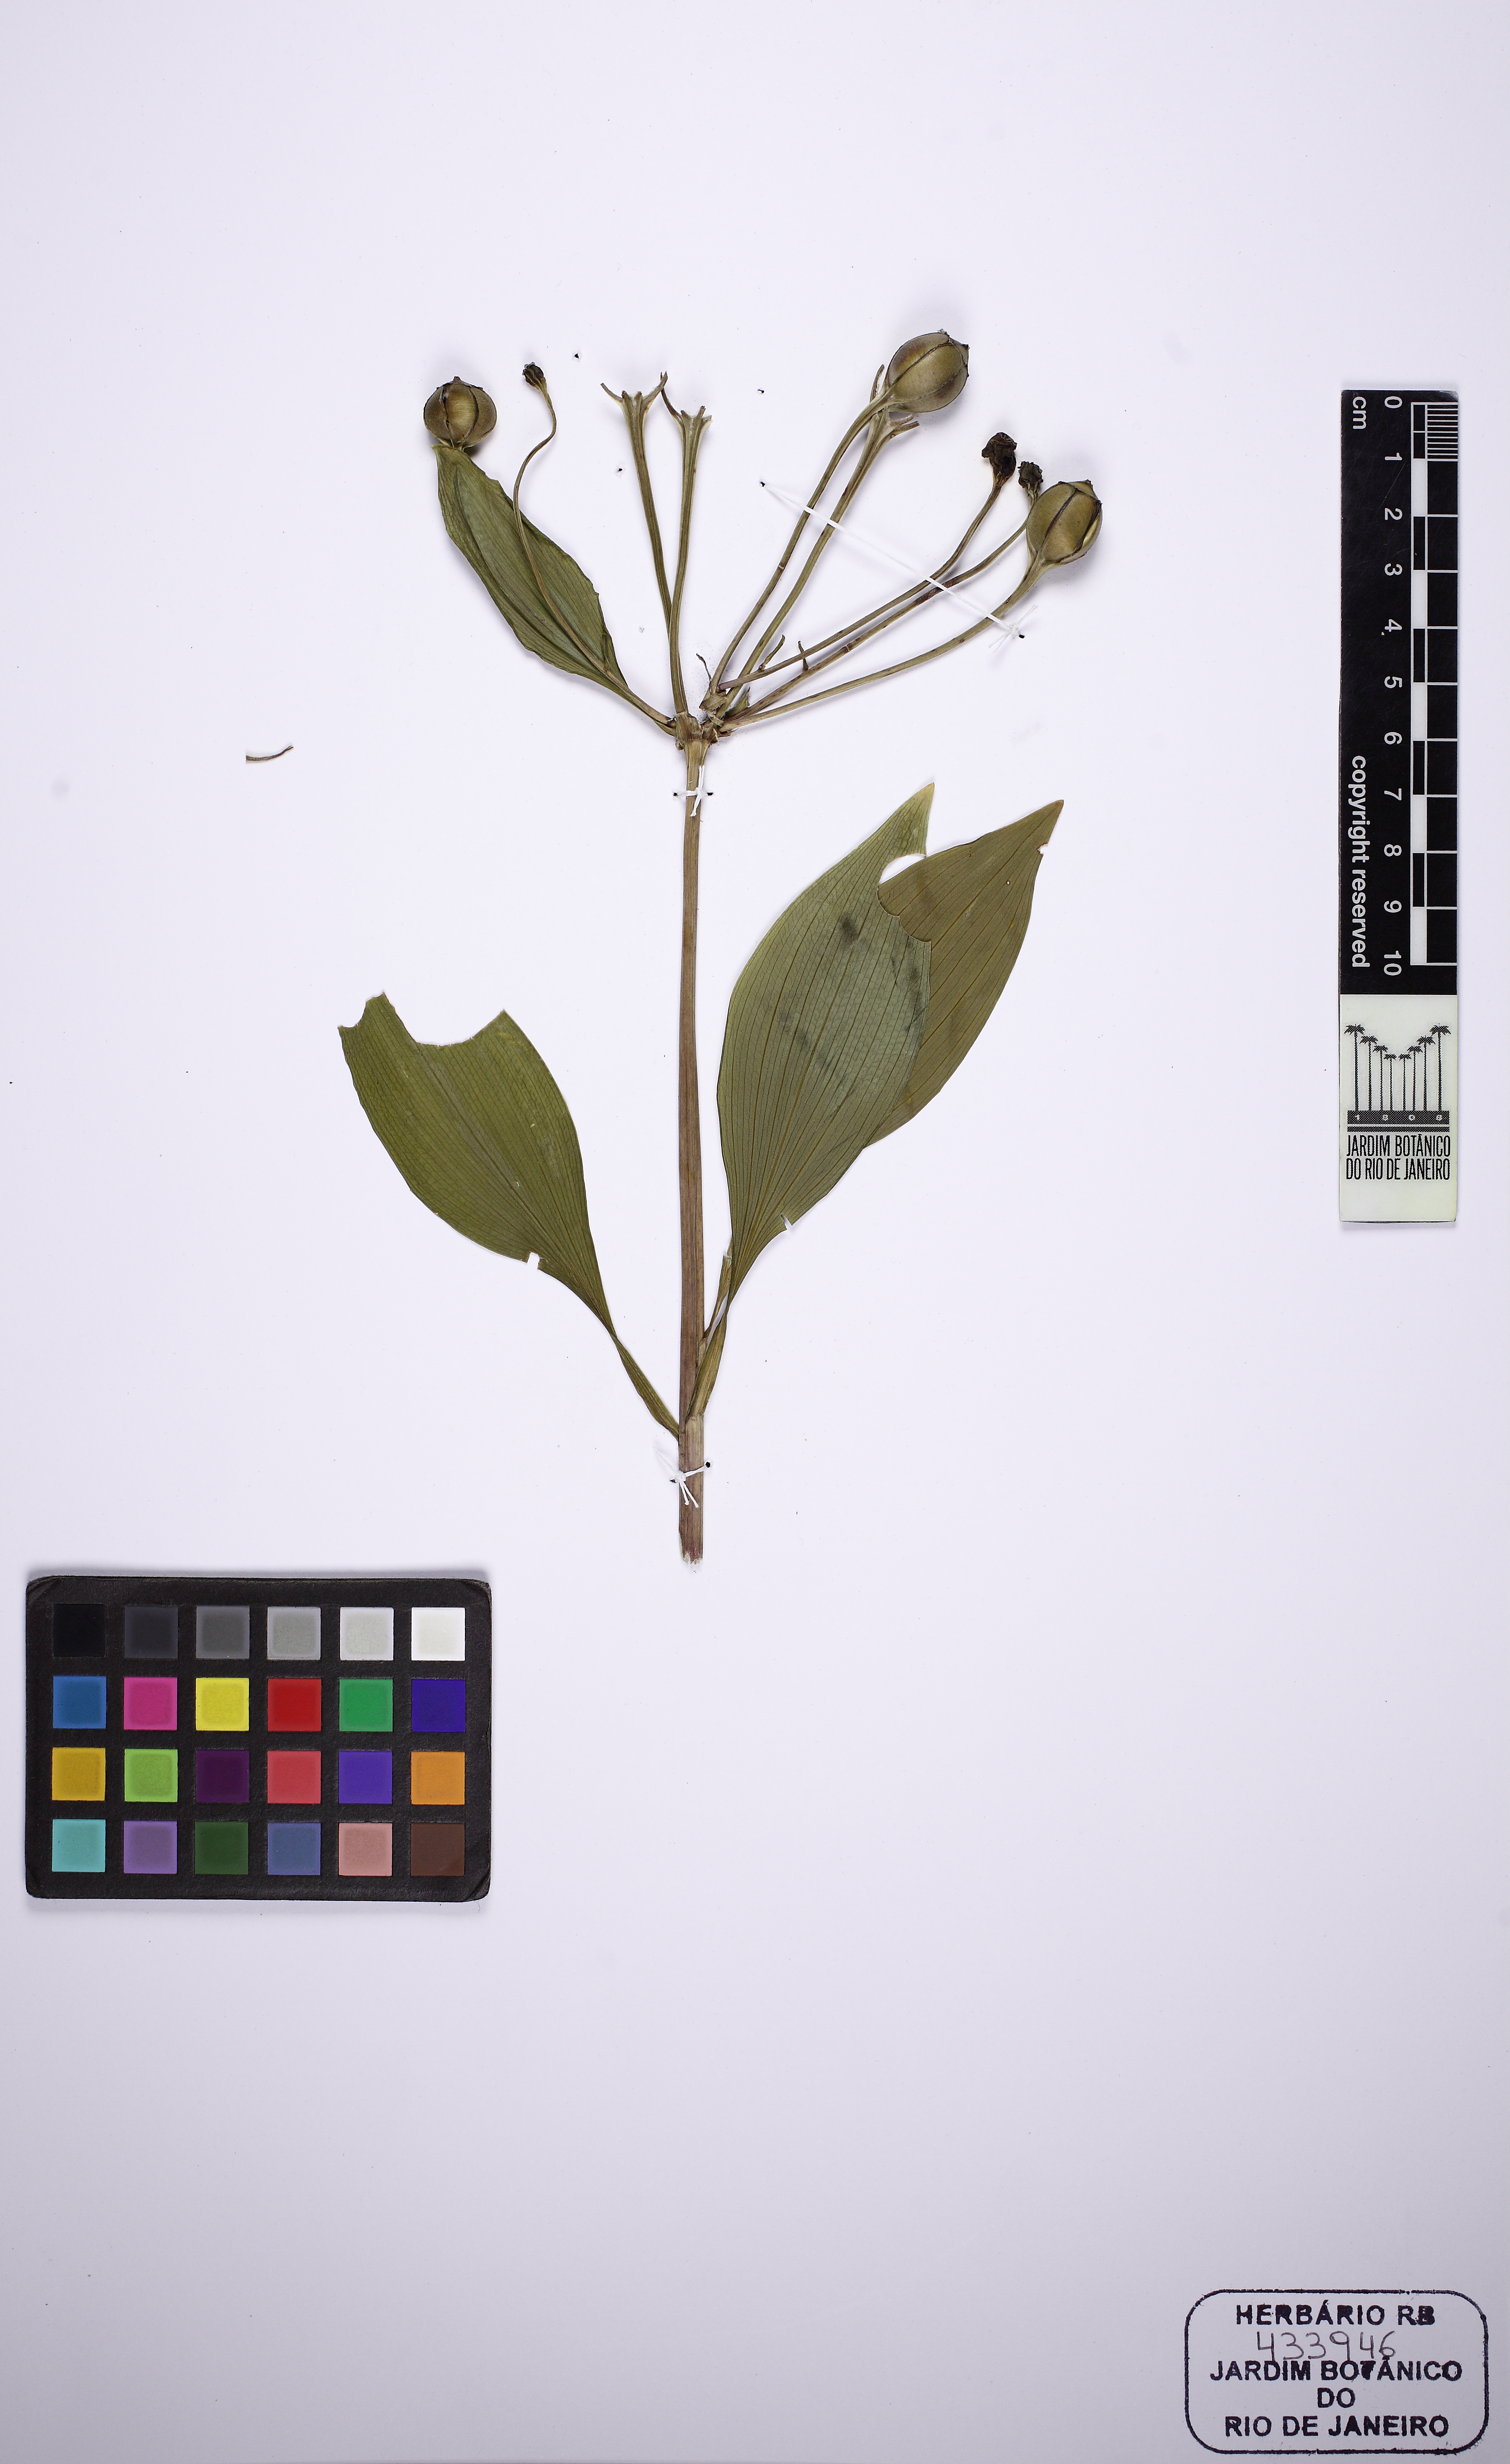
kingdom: Plantae
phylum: Tracheophyta
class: Liliopsida
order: Liliales
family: Alstroemeriaceae
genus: Alstroemeria
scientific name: Alstroemeria
